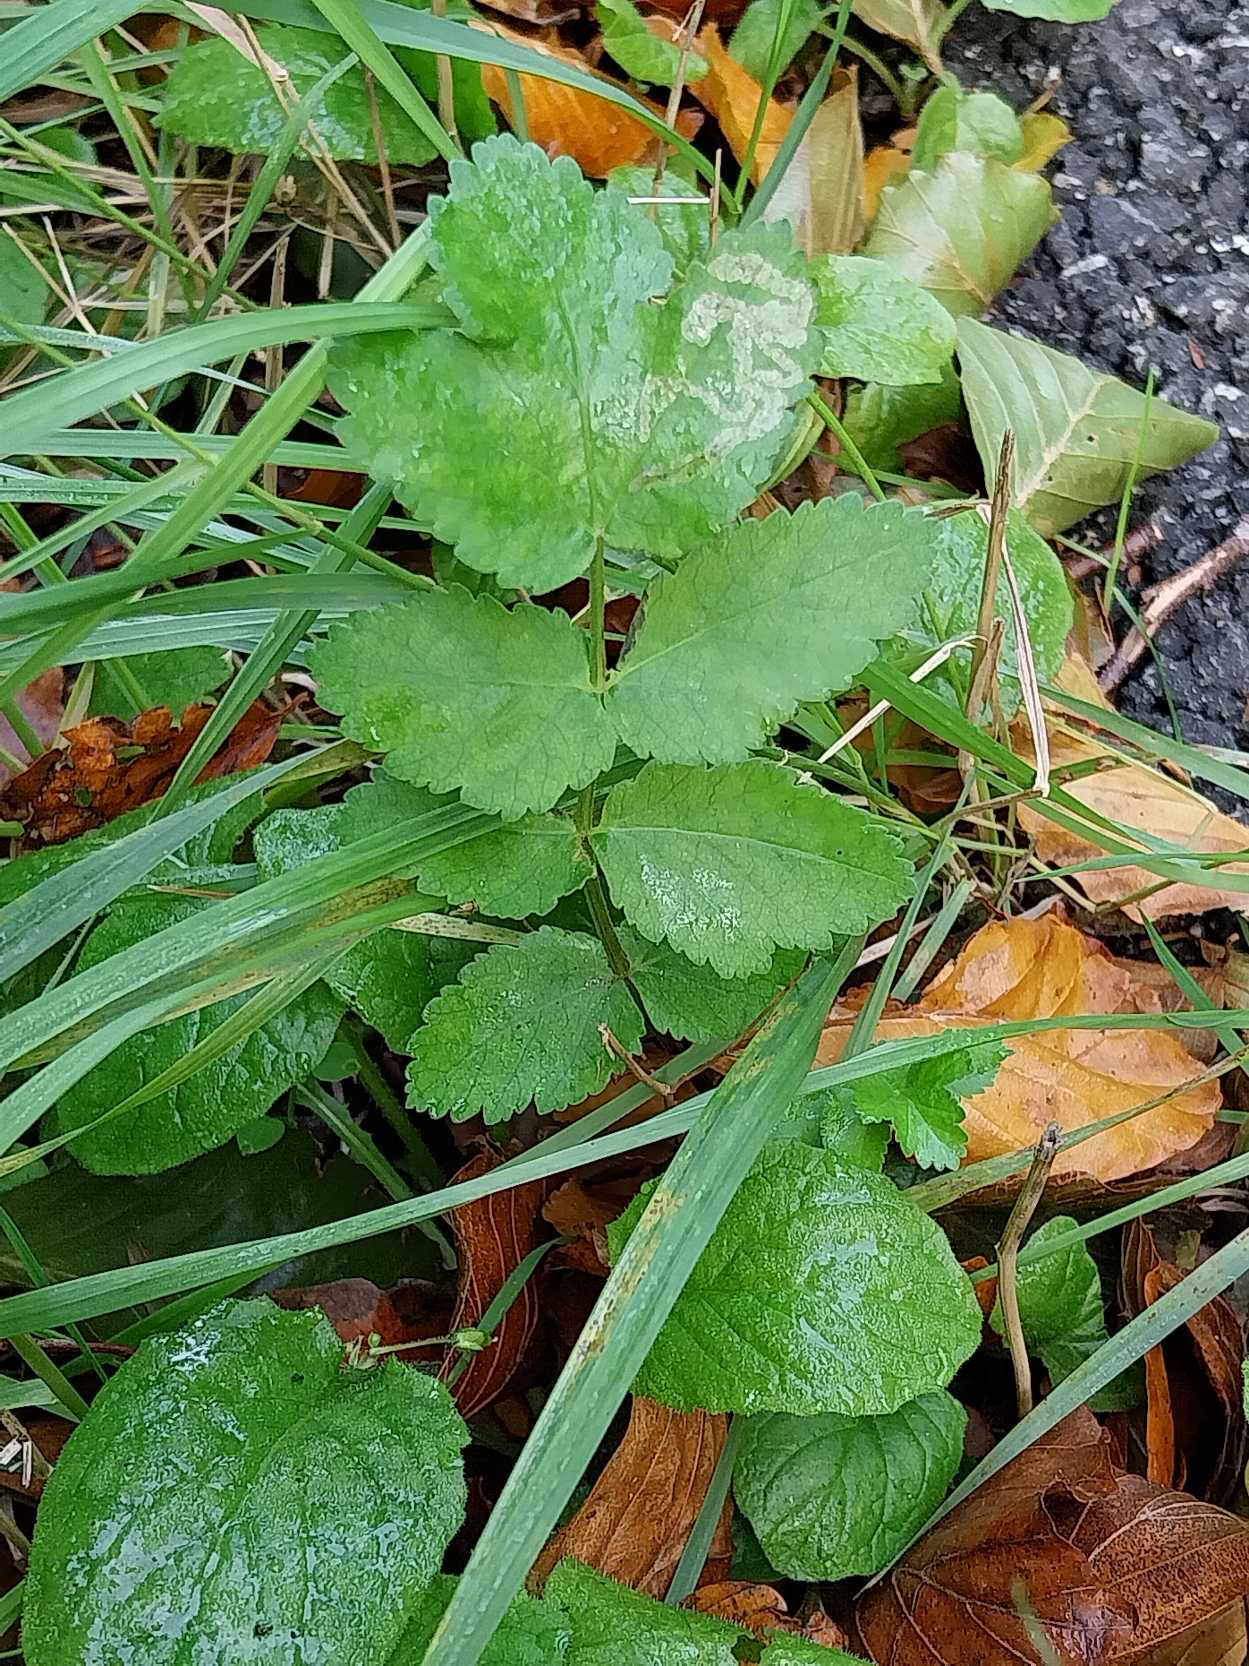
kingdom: Plantae
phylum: Tracheophyta
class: Magnoliopsida
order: Apiales
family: Apiaceae
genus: Pastinaca
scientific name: Pastinaca sativa
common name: Pastinak
